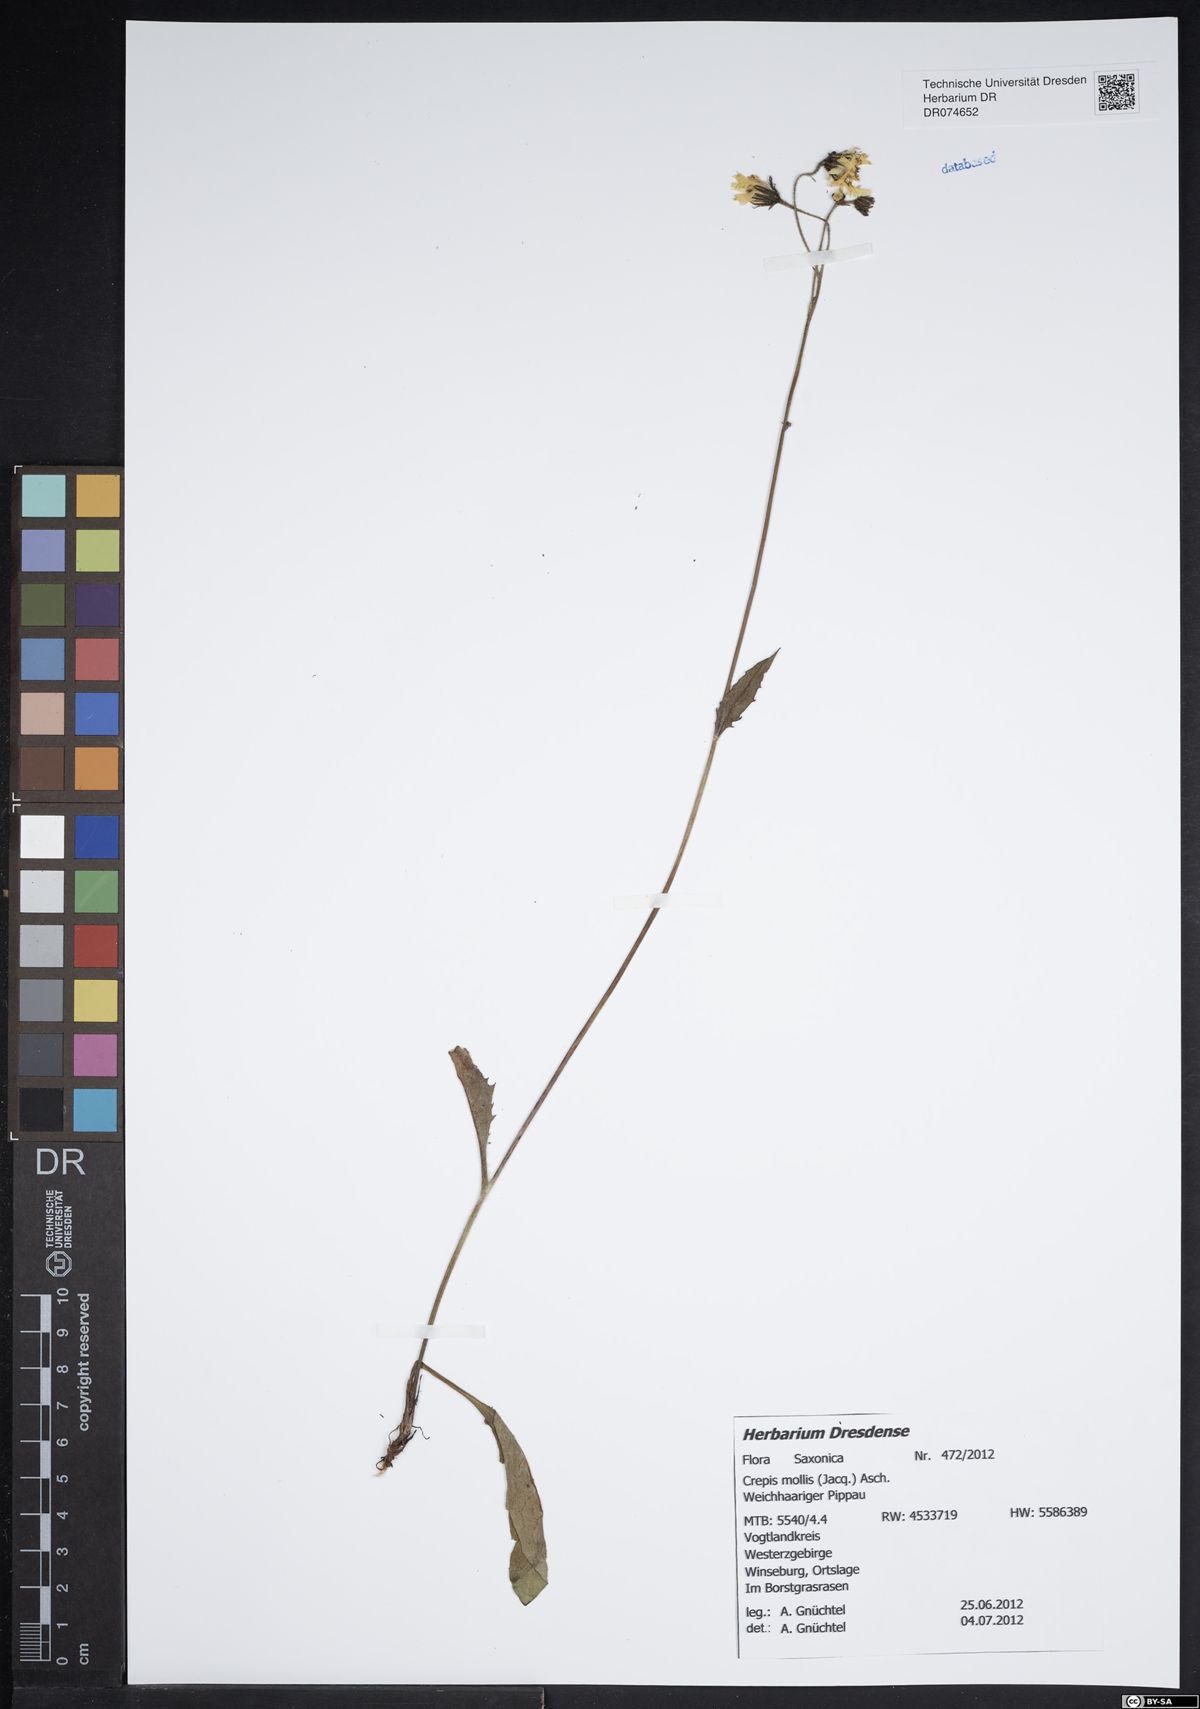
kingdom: Plantae
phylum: Tracheophyta
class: Magnoliopsida
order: Asterales
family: Asteraceae
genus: Crepis
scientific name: Crepis biennis
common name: Rough hawk's-beard
